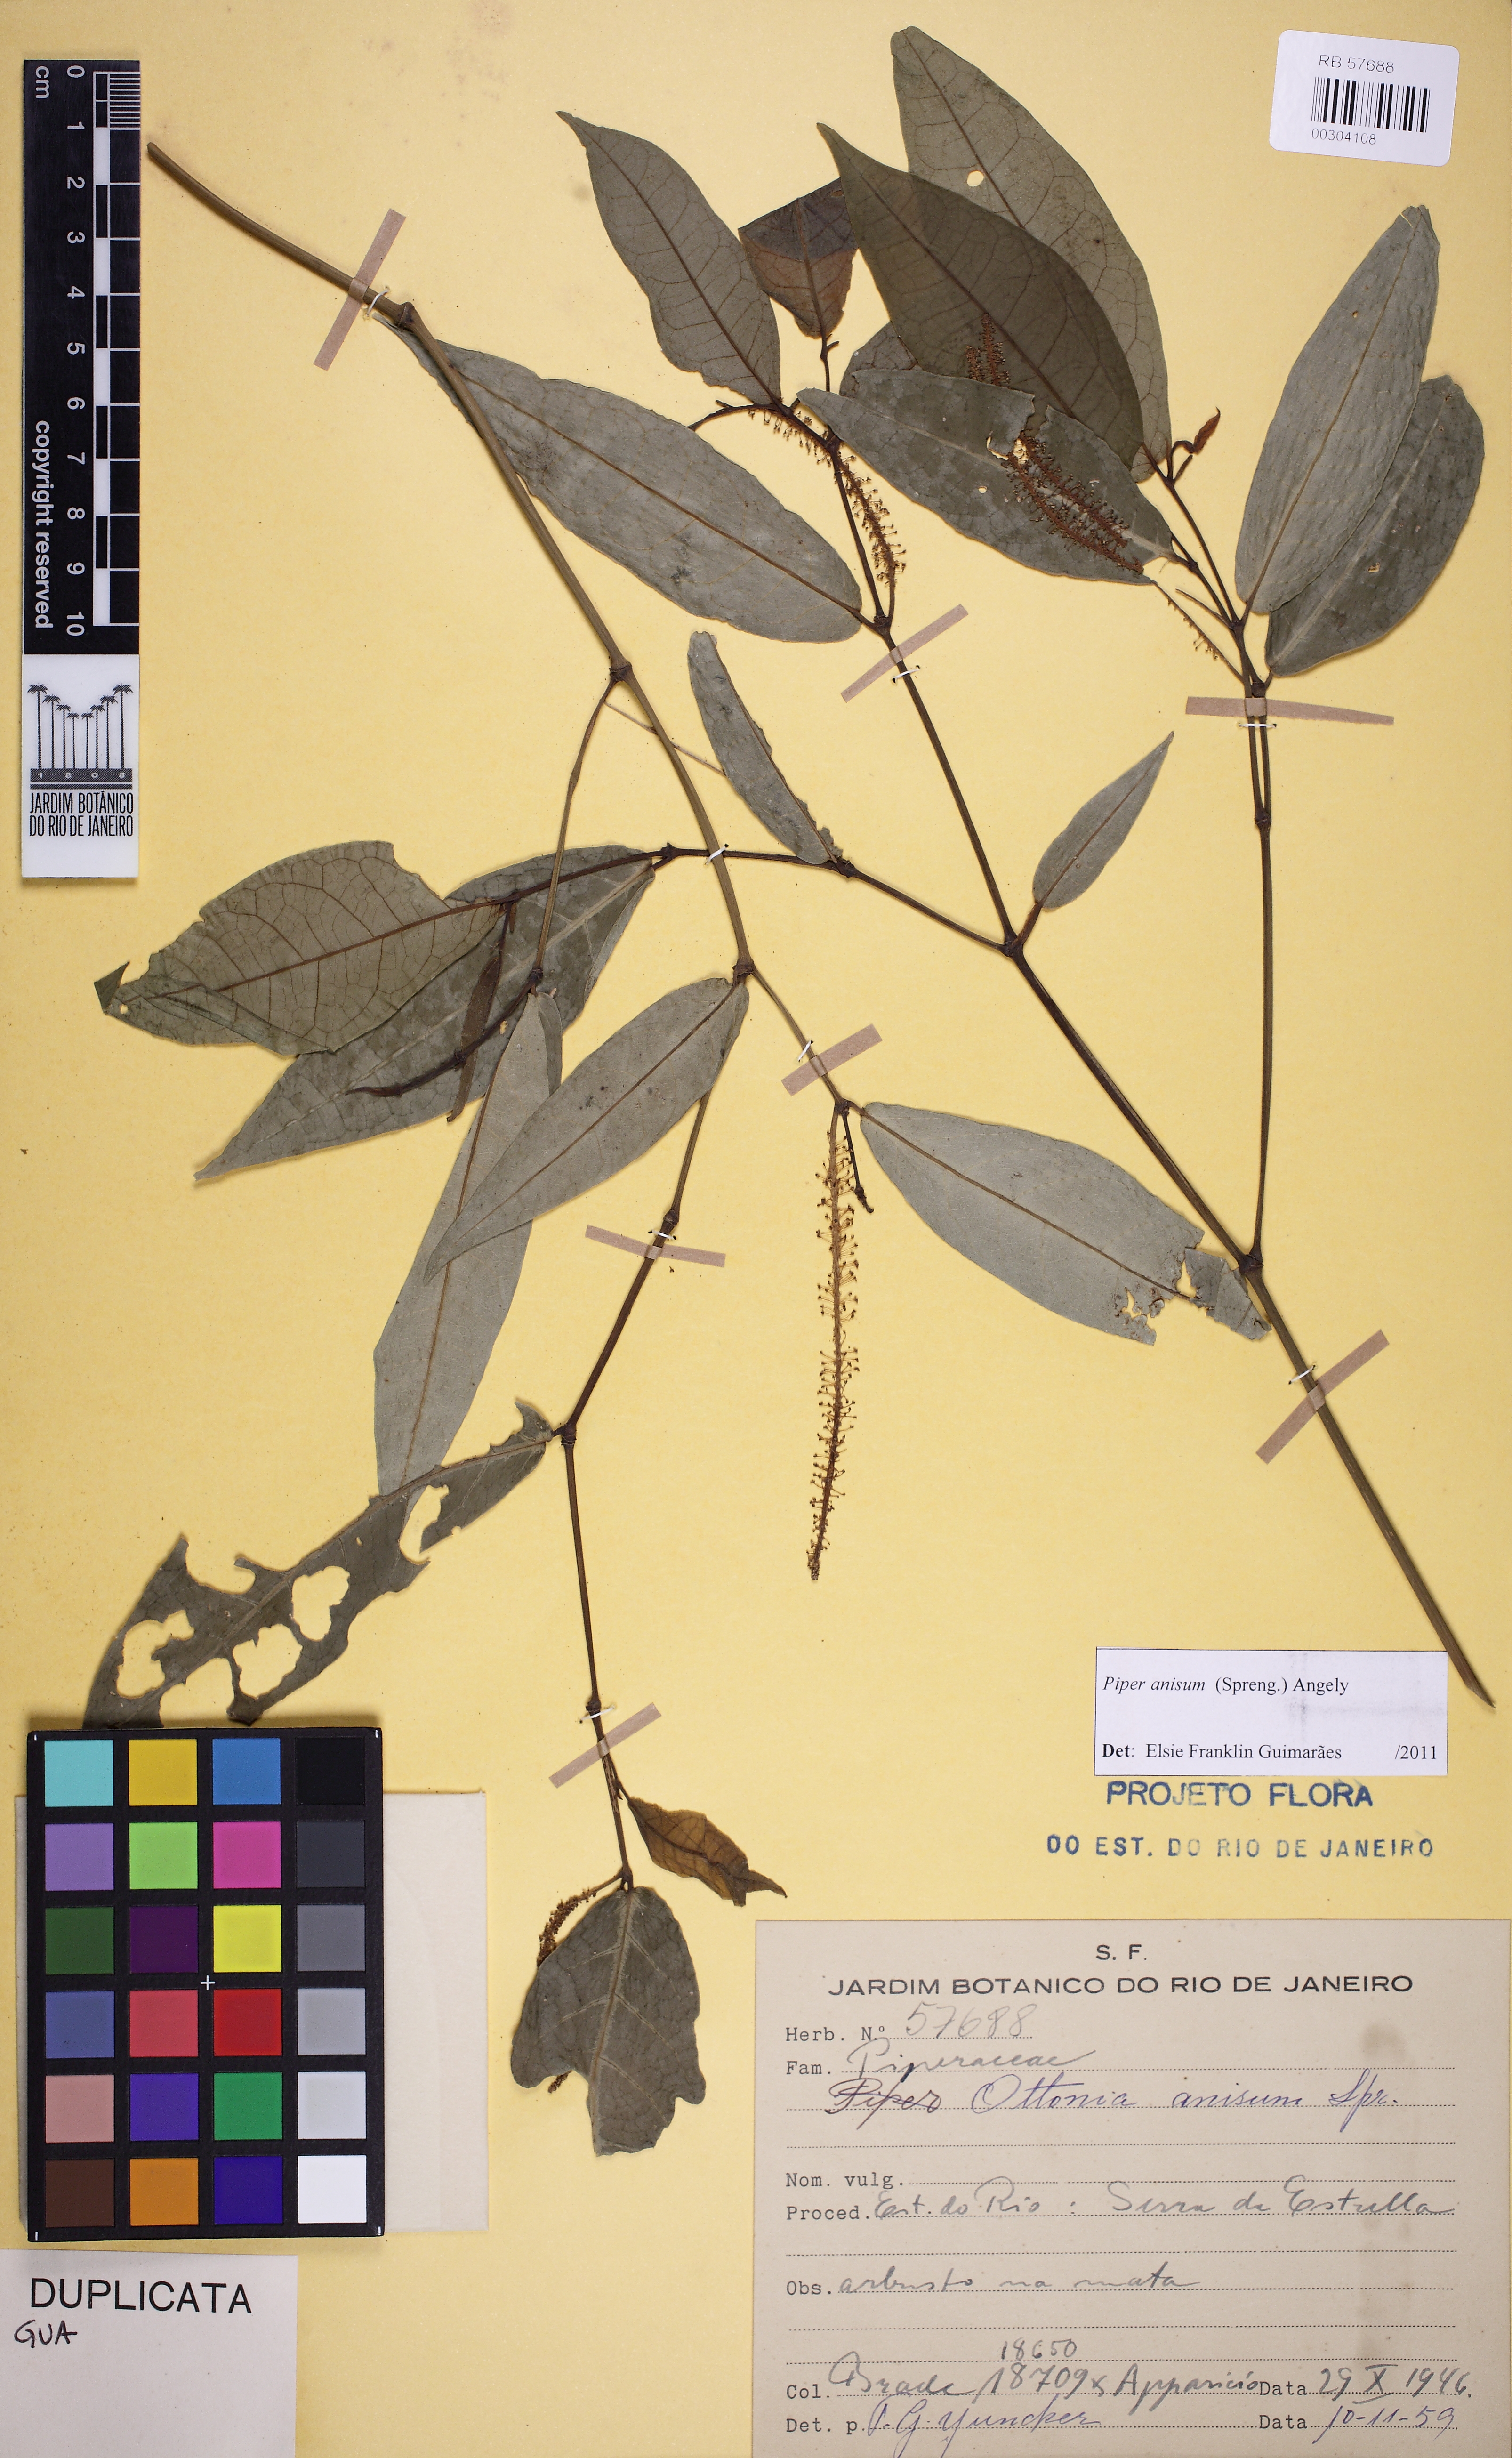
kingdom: Plantae
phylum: Tracheophyta
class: Magnoliopsida
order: Piperales
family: Piperaceae
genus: Piper
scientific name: Piper anisum
